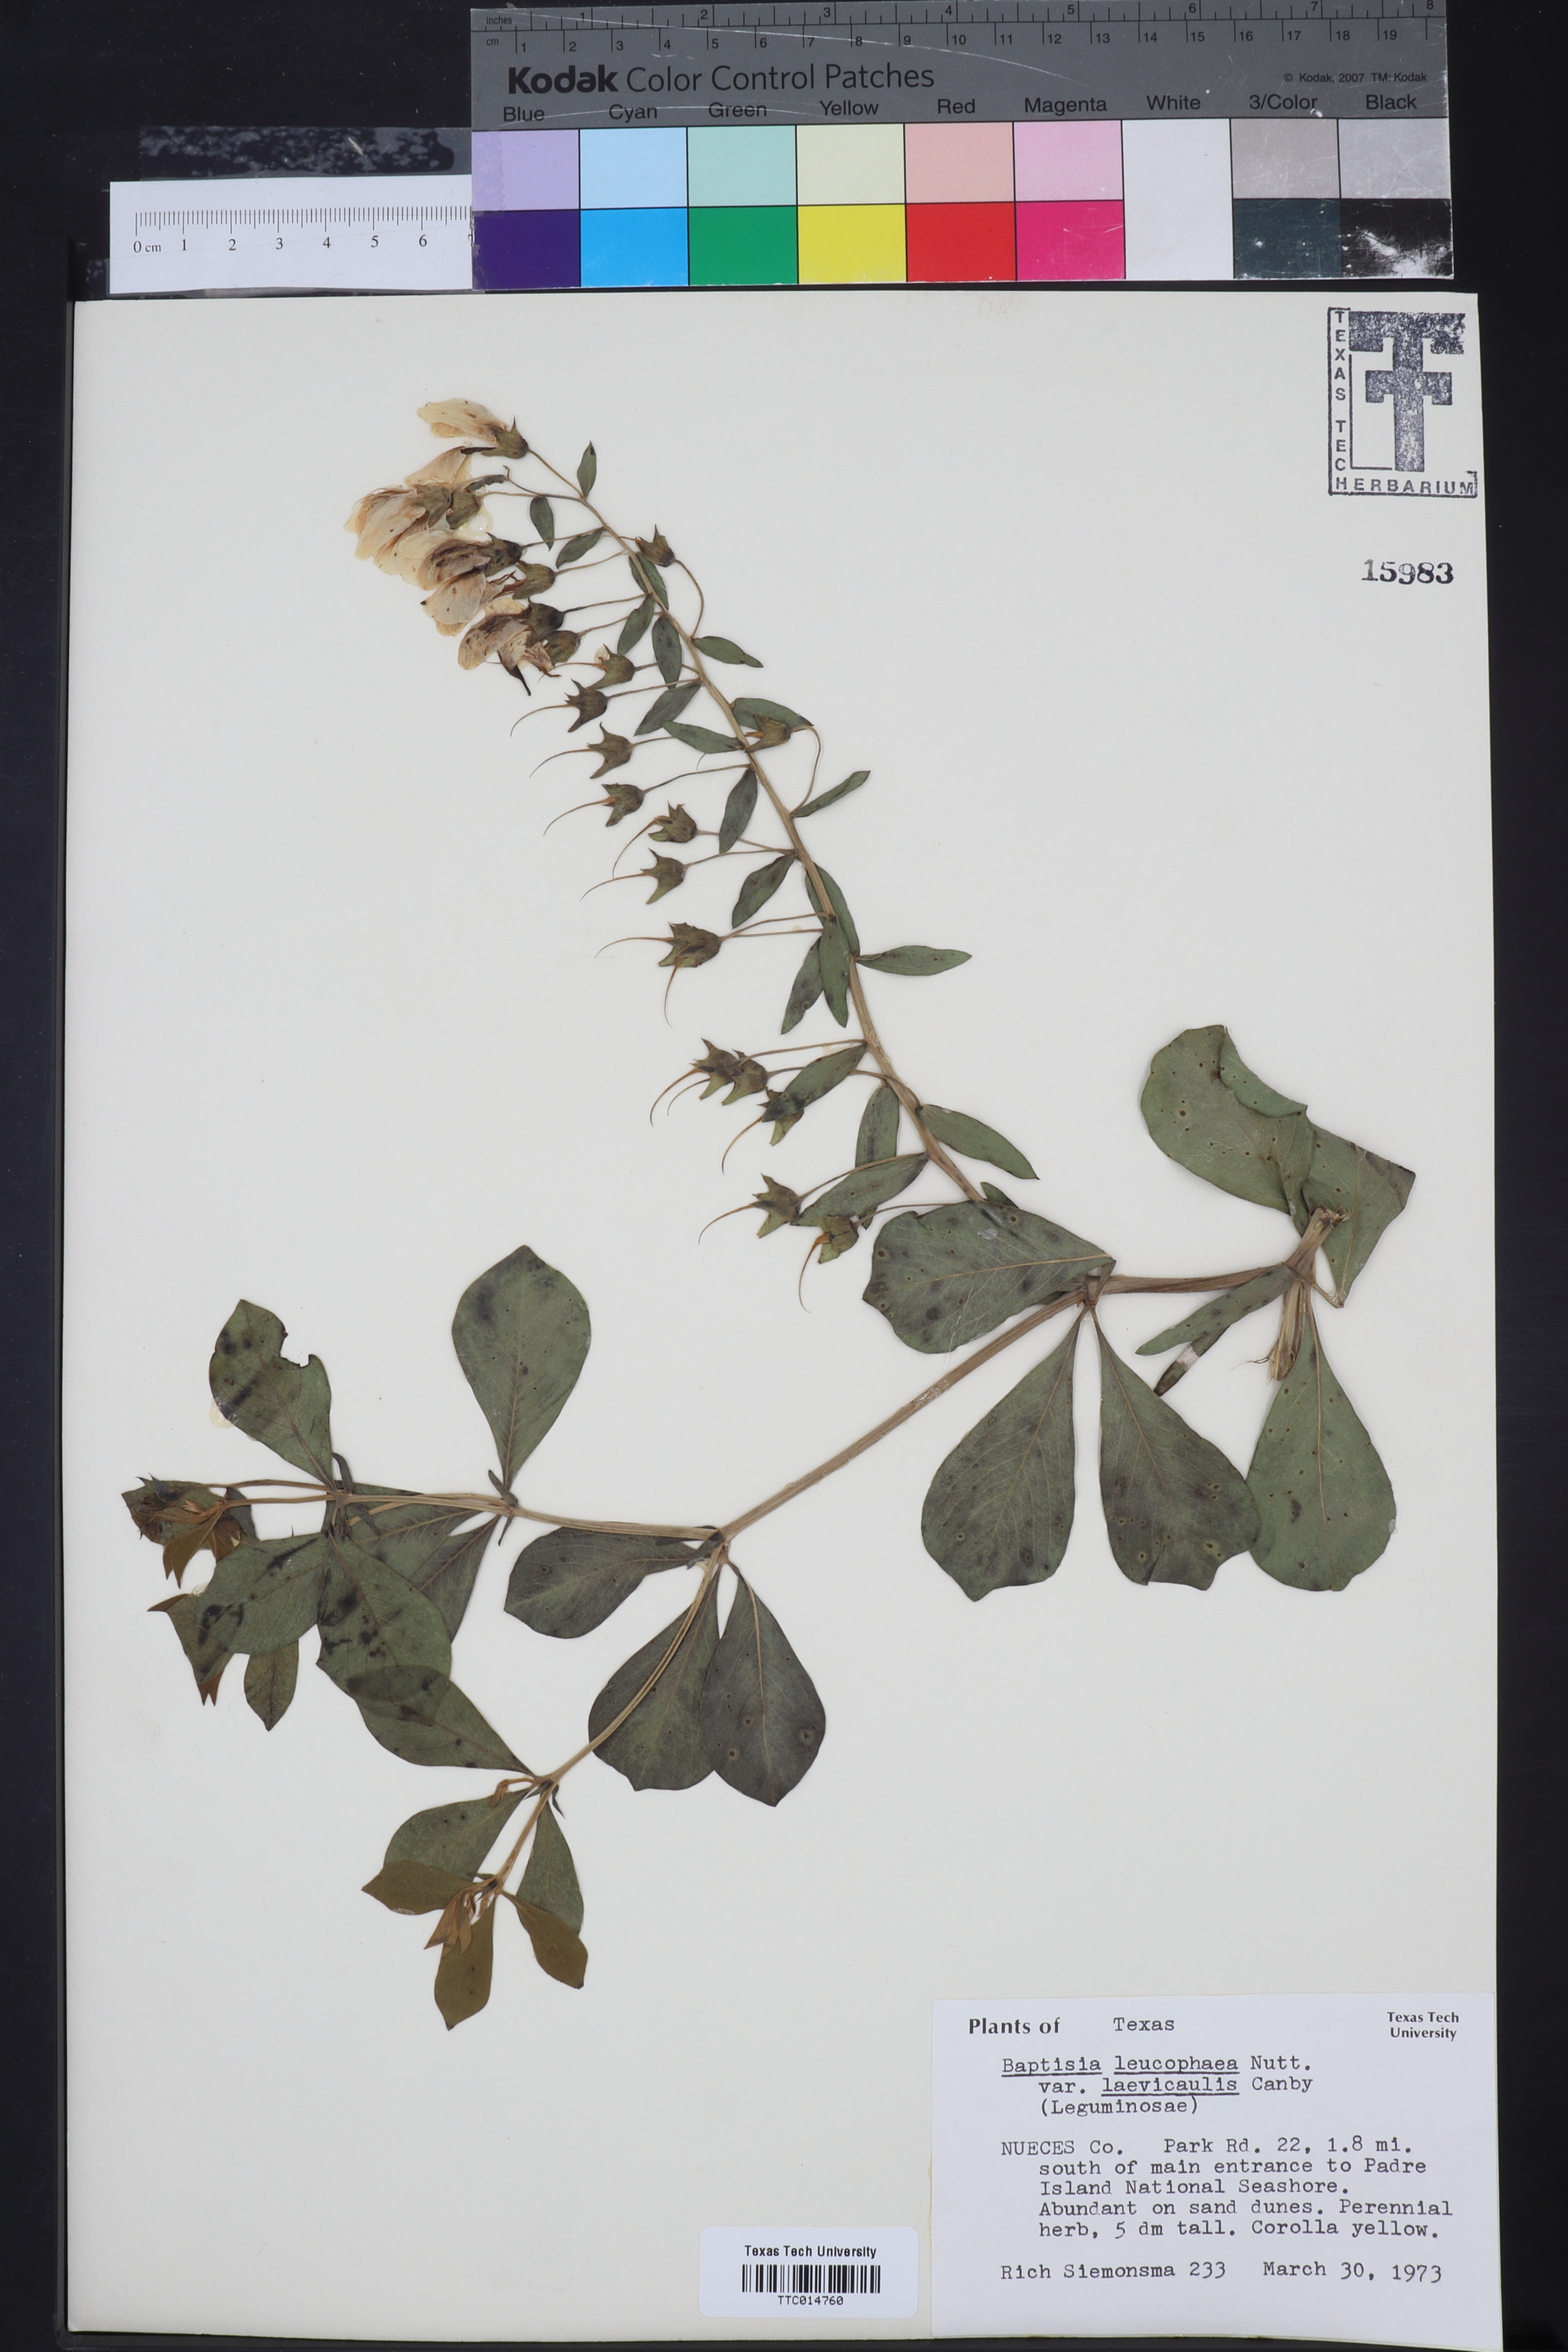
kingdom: Plantae
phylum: Tracheophyta
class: Magnoliopsida
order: Fabales
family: Fabaceae
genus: Baptisia
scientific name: Baptisia bracteata
